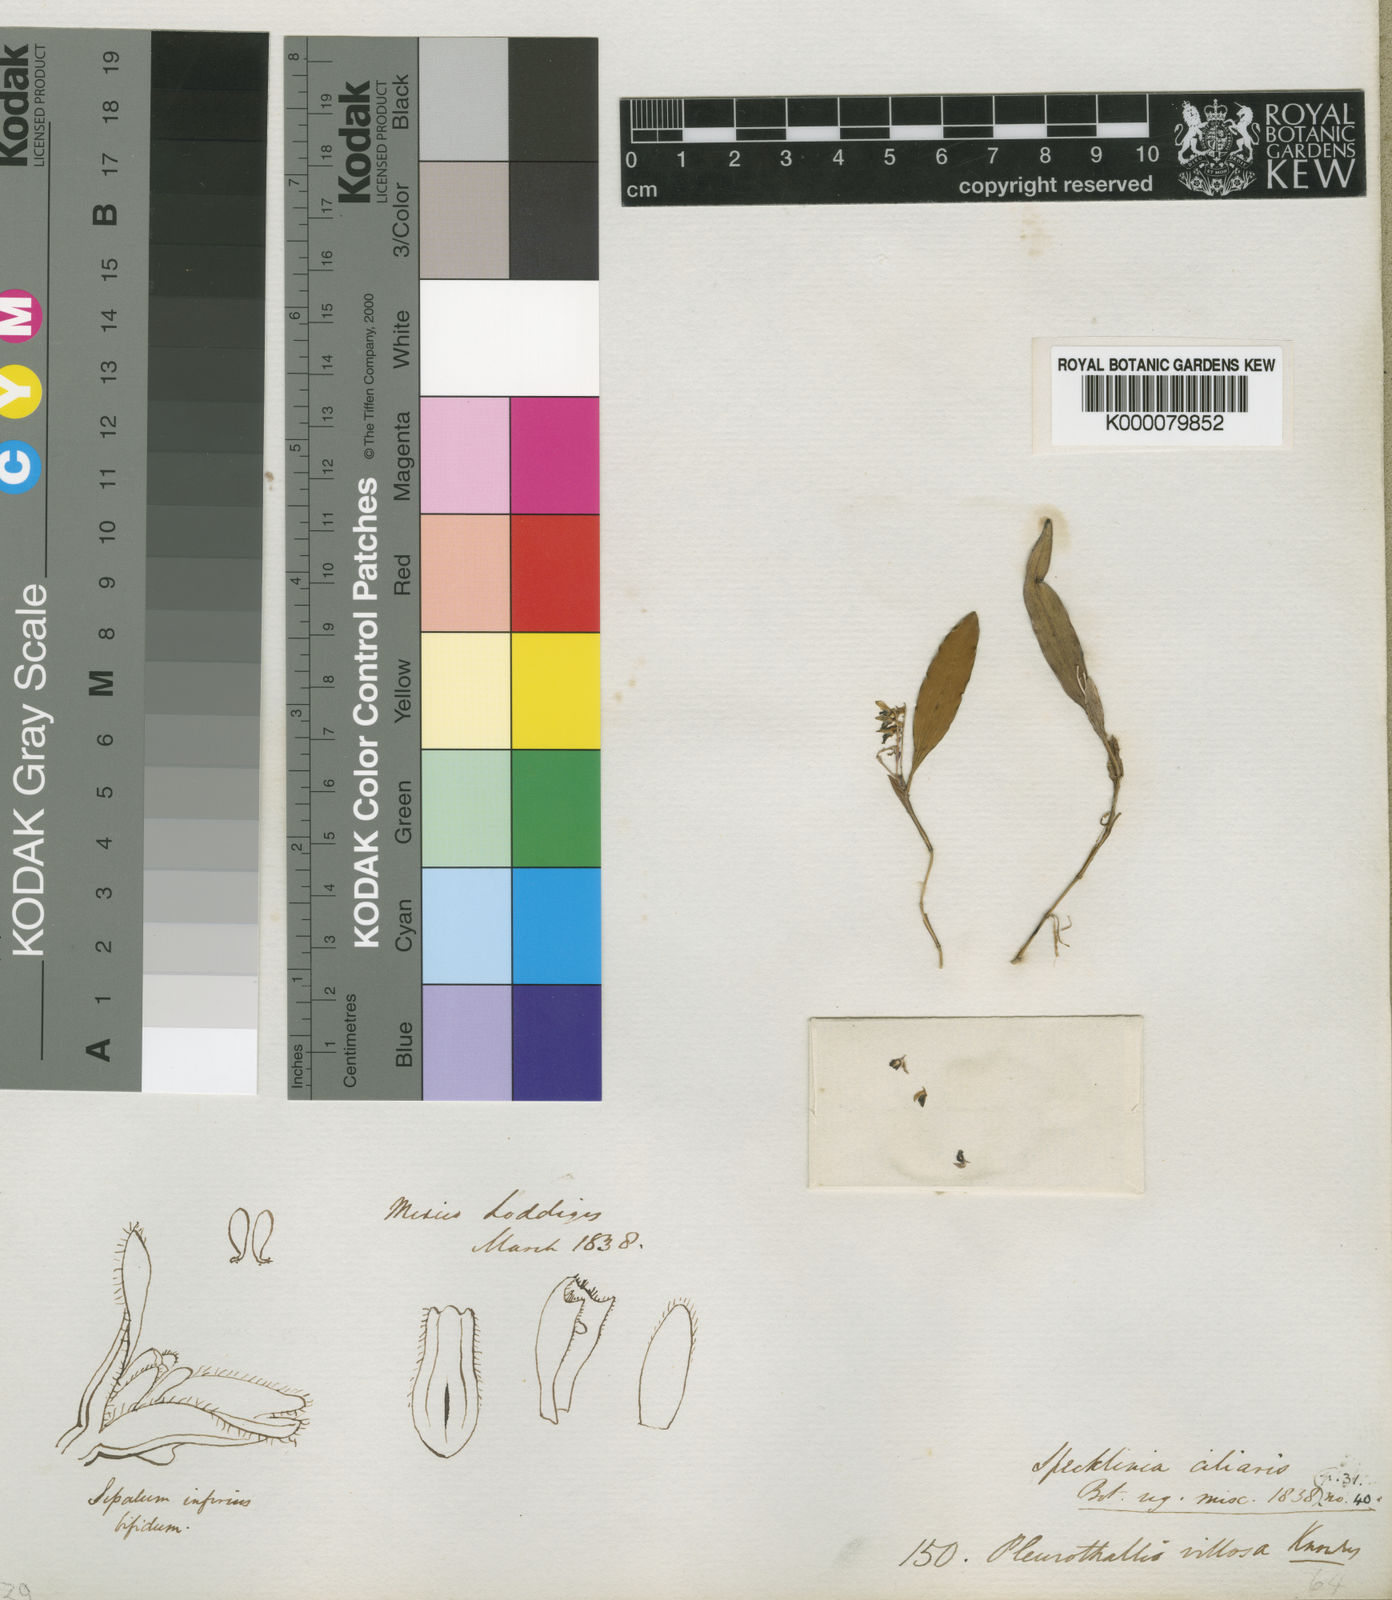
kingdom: Plantae
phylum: Tracheophyta
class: Liliopsida
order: Asparagales
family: Orchidaceae
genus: Trichosalpinx
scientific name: Trichosalpinx ciliaris
